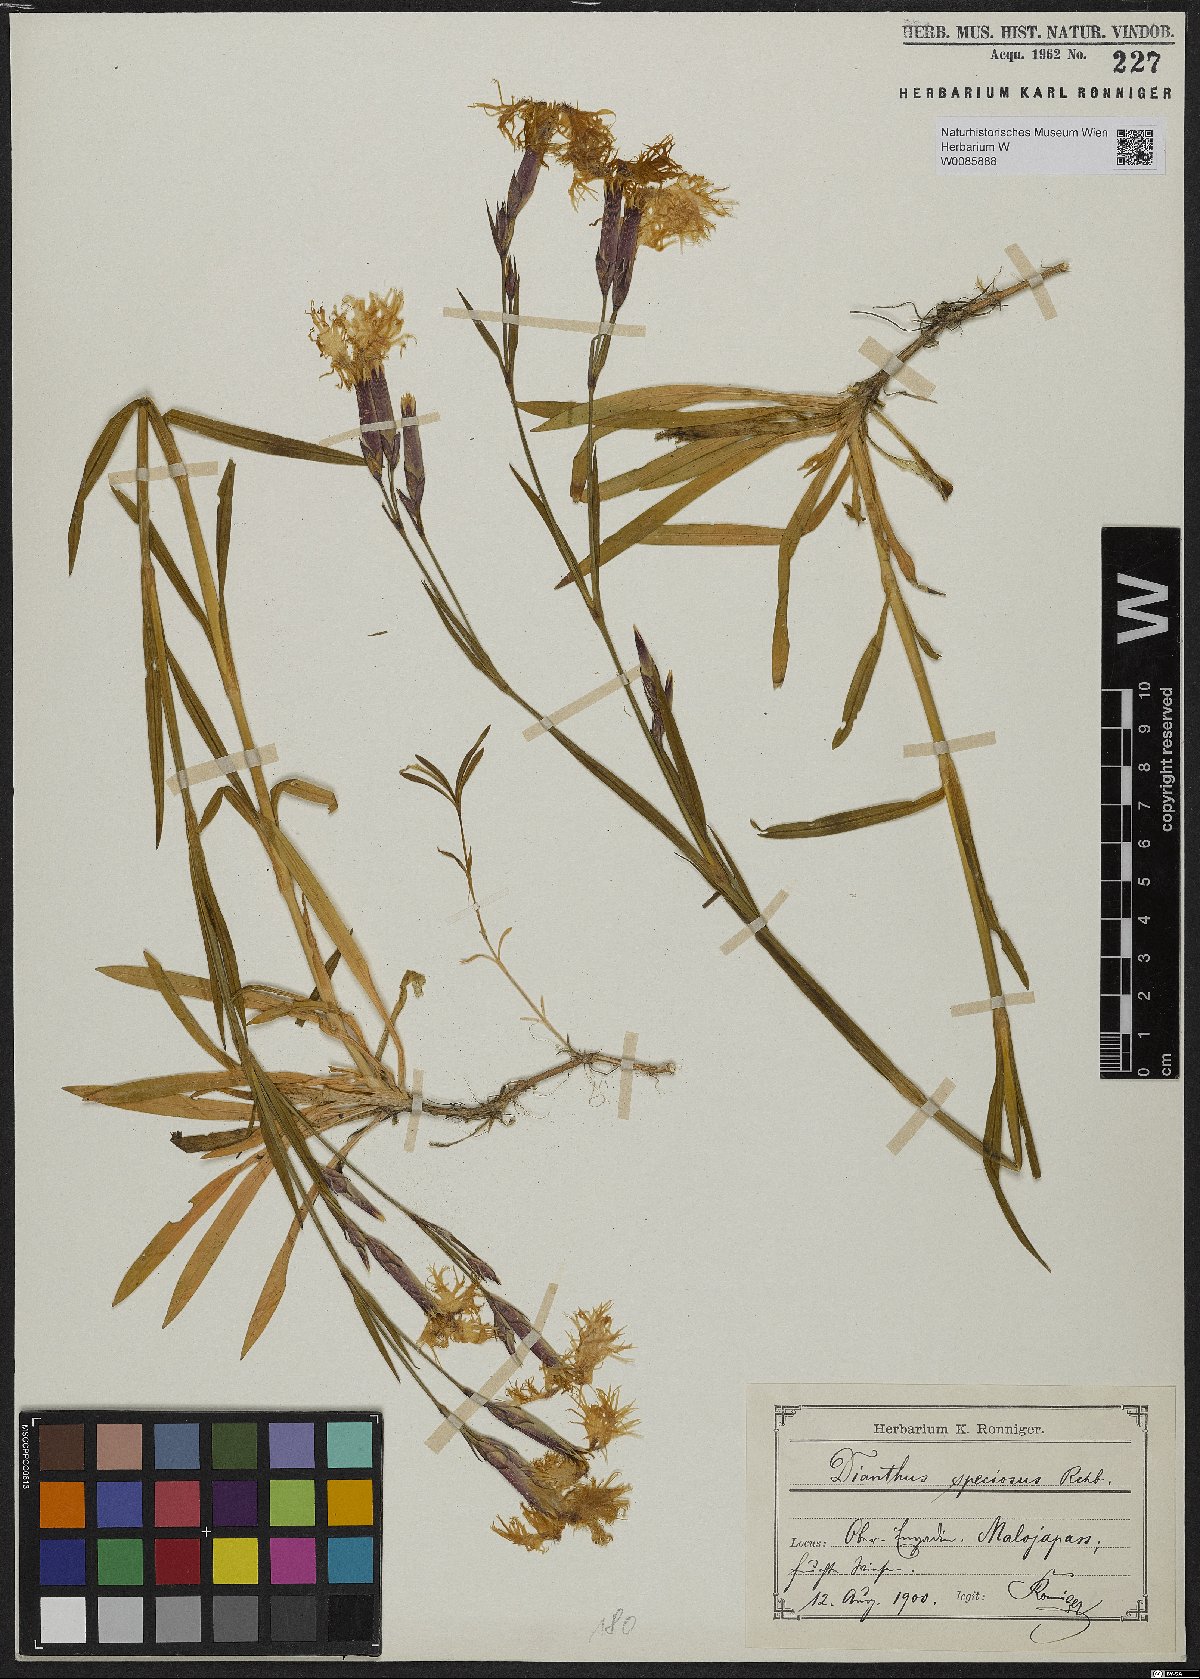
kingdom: Plantae
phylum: Tracheophyta
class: Magnoliopsida
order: Caryophyllales
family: Caryophyllaceae
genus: Dianthus
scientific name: Dianthus superbus
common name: Fringed pink
